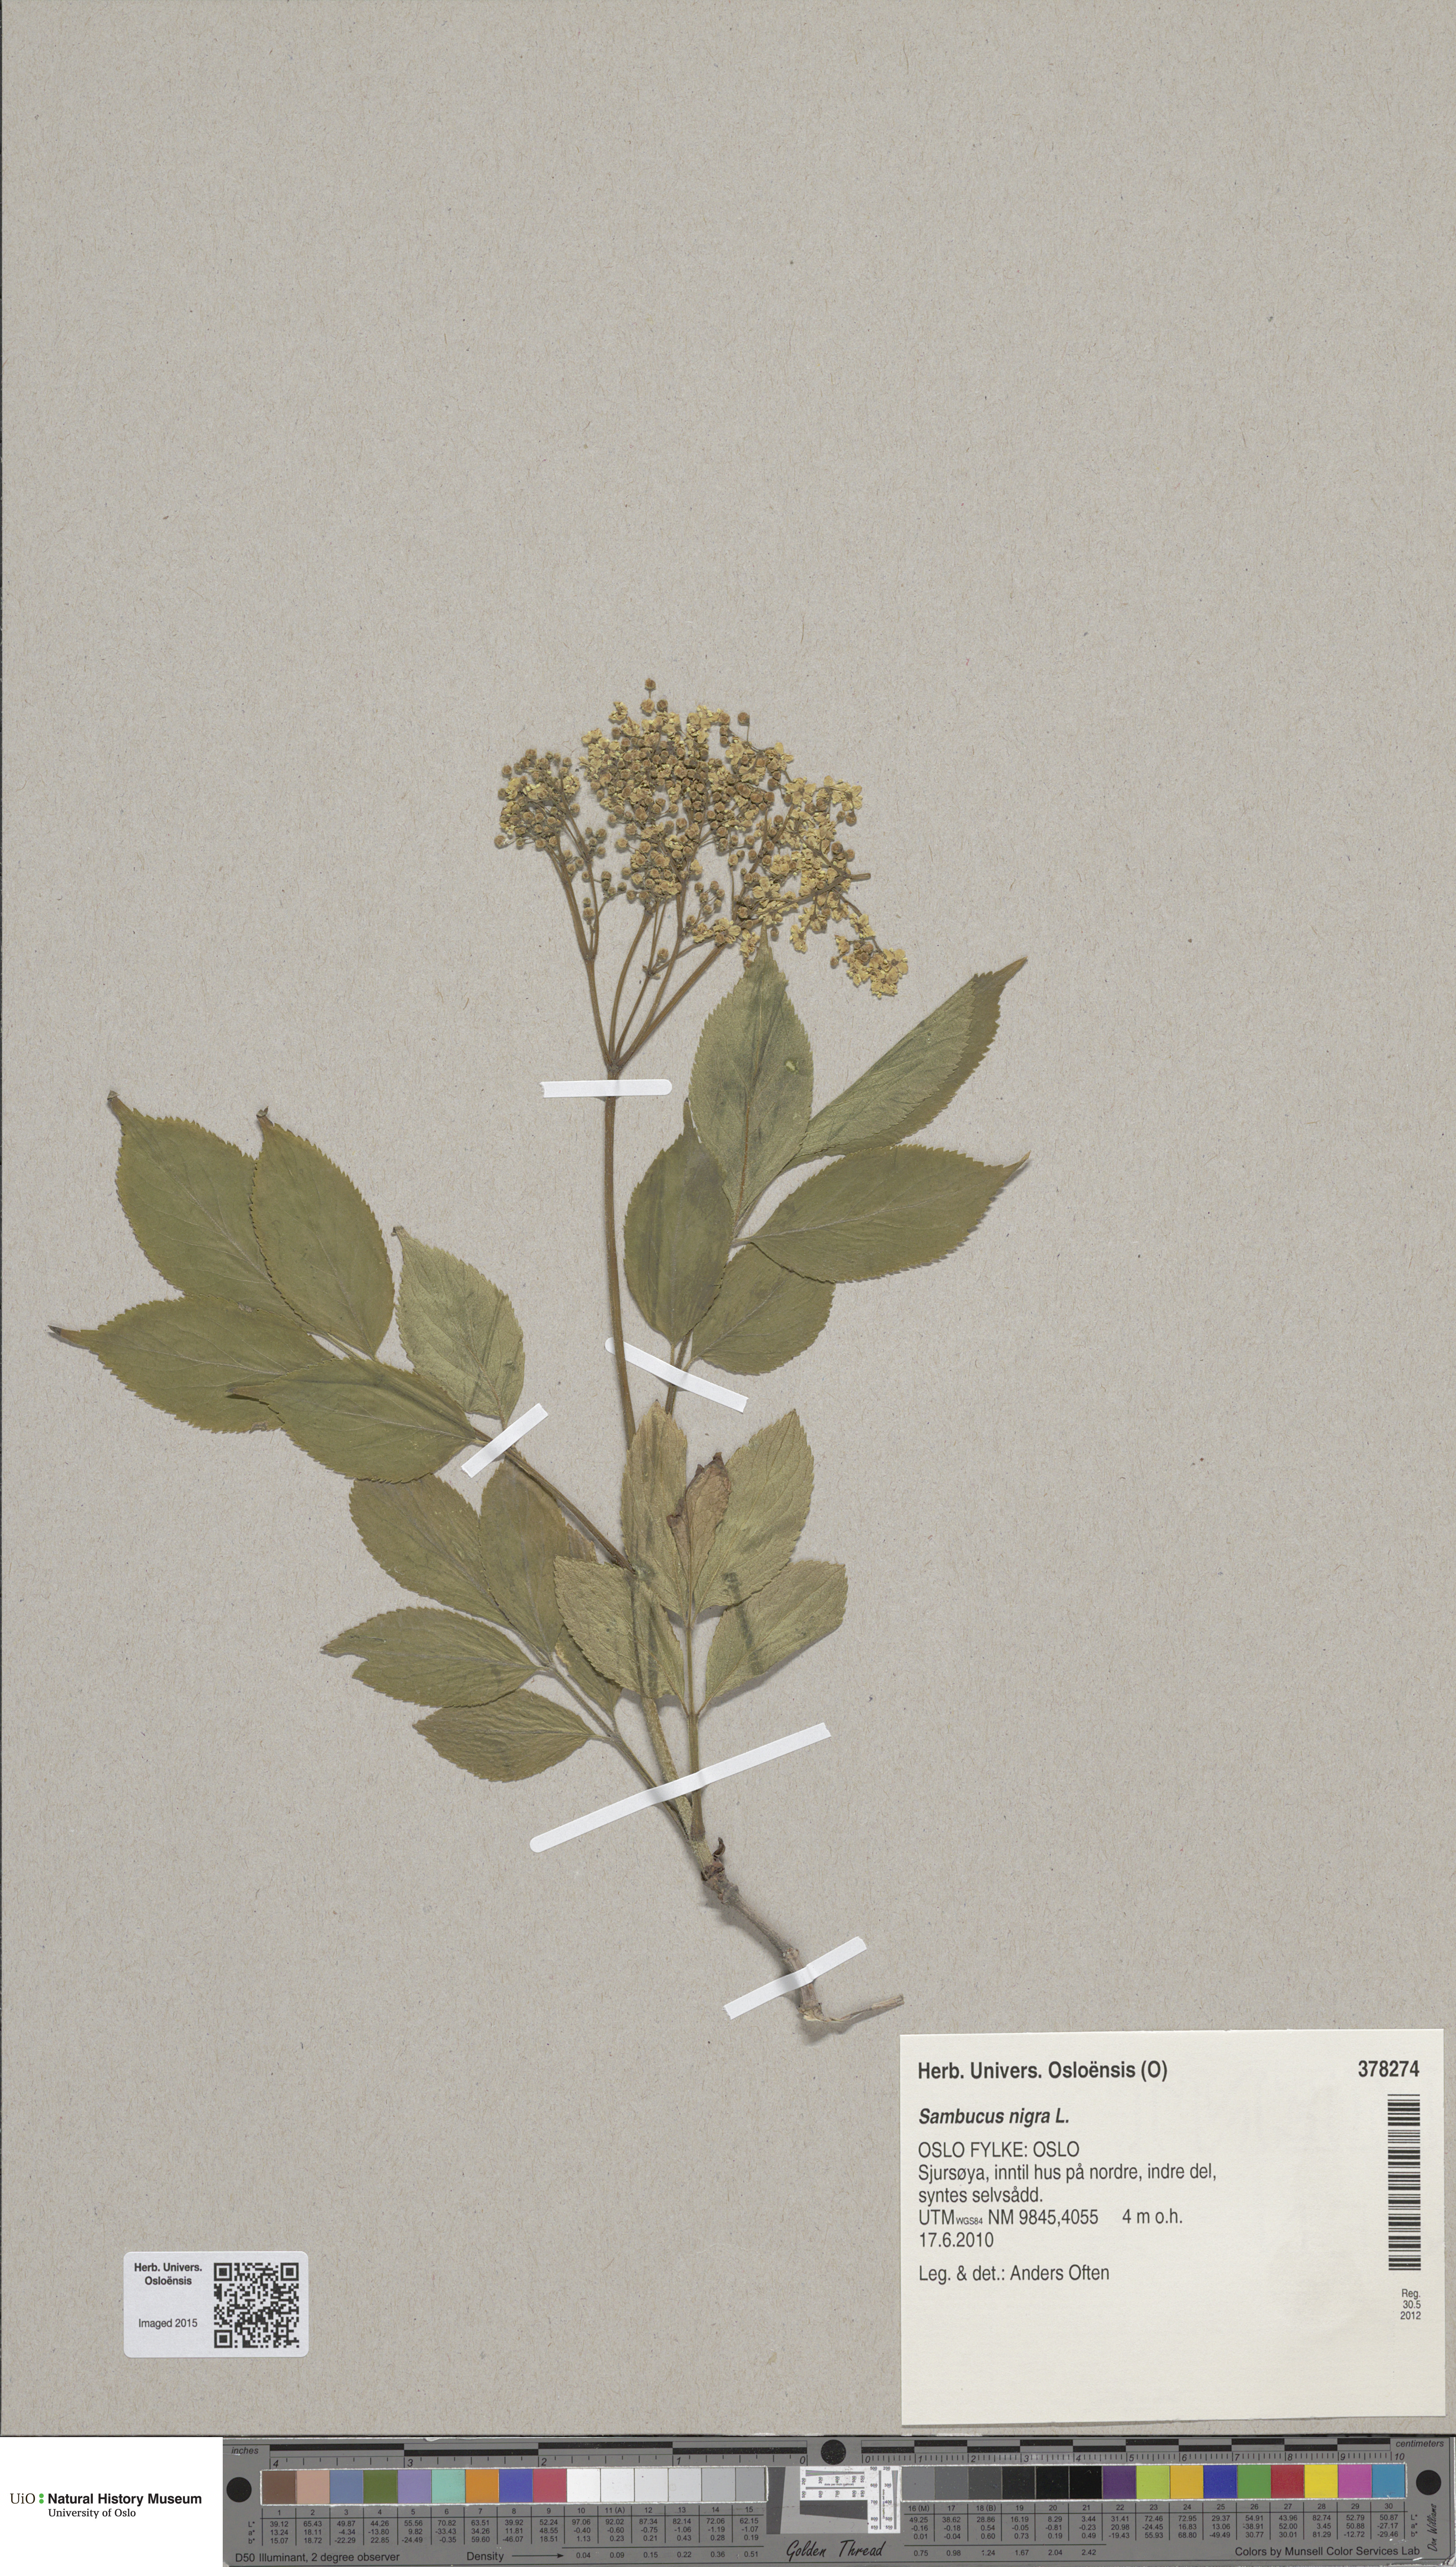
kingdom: Plantae
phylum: Tracheophyta
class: Magnoliopsida
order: Dipsacales
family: Viburnaceae
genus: Sambucus
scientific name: Sambucus nigra
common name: Elder
